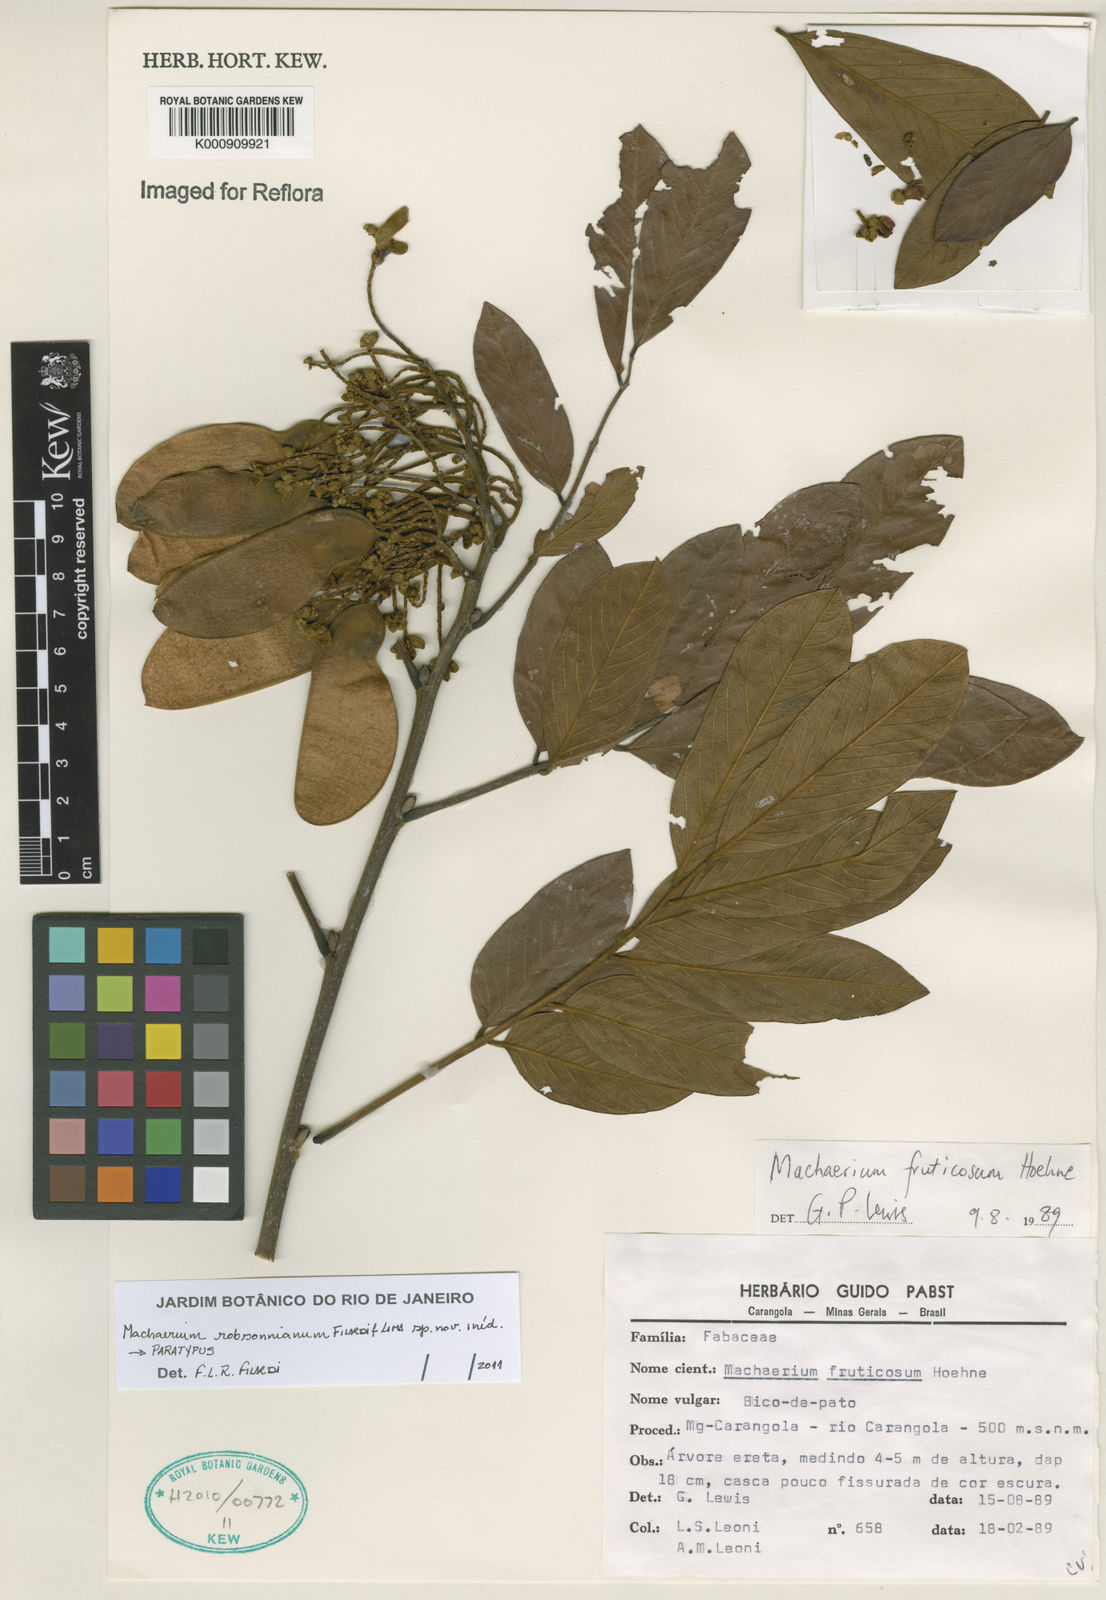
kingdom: Plantae
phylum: Tracheophyta
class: Magnoliopsida
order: Fabales
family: Fabaceae
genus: Machaerium
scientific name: Machaerium robsonianum
